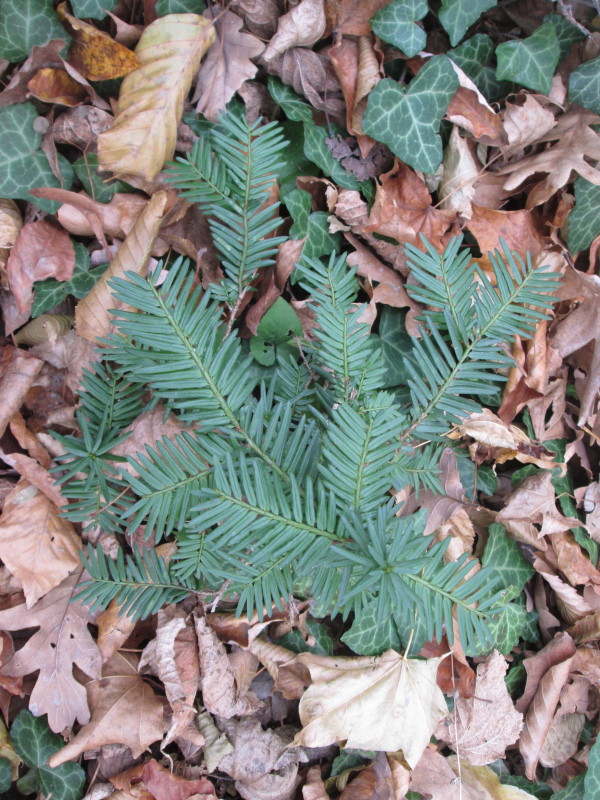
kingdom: Plantae
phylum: Tracheophyta
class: Pinopsida
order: Pinales
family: Taxaceae
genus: Taxus
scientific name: Taxus baccata
